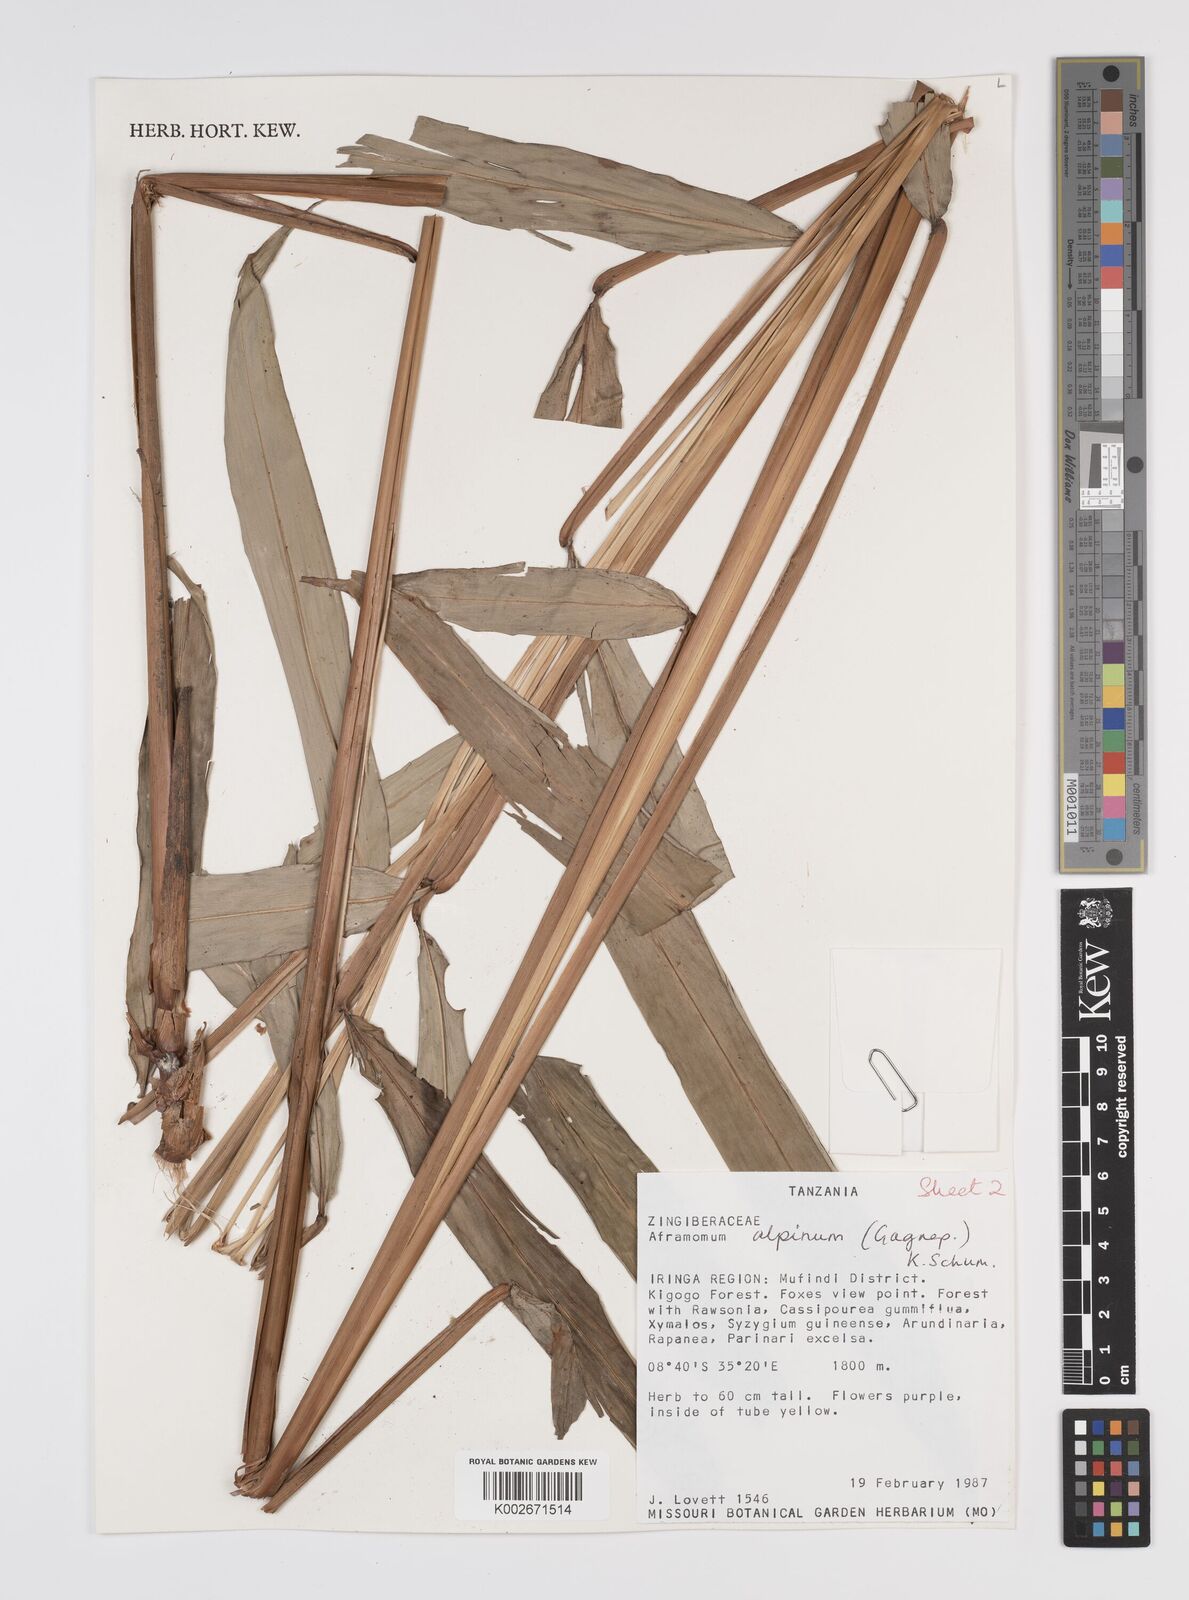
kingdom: Plantae
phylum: Tracheophyta
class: Liliopsida
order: Zingiberales
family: Zingiberaceae
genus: Aframomum
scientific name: Aframomum alpinum
